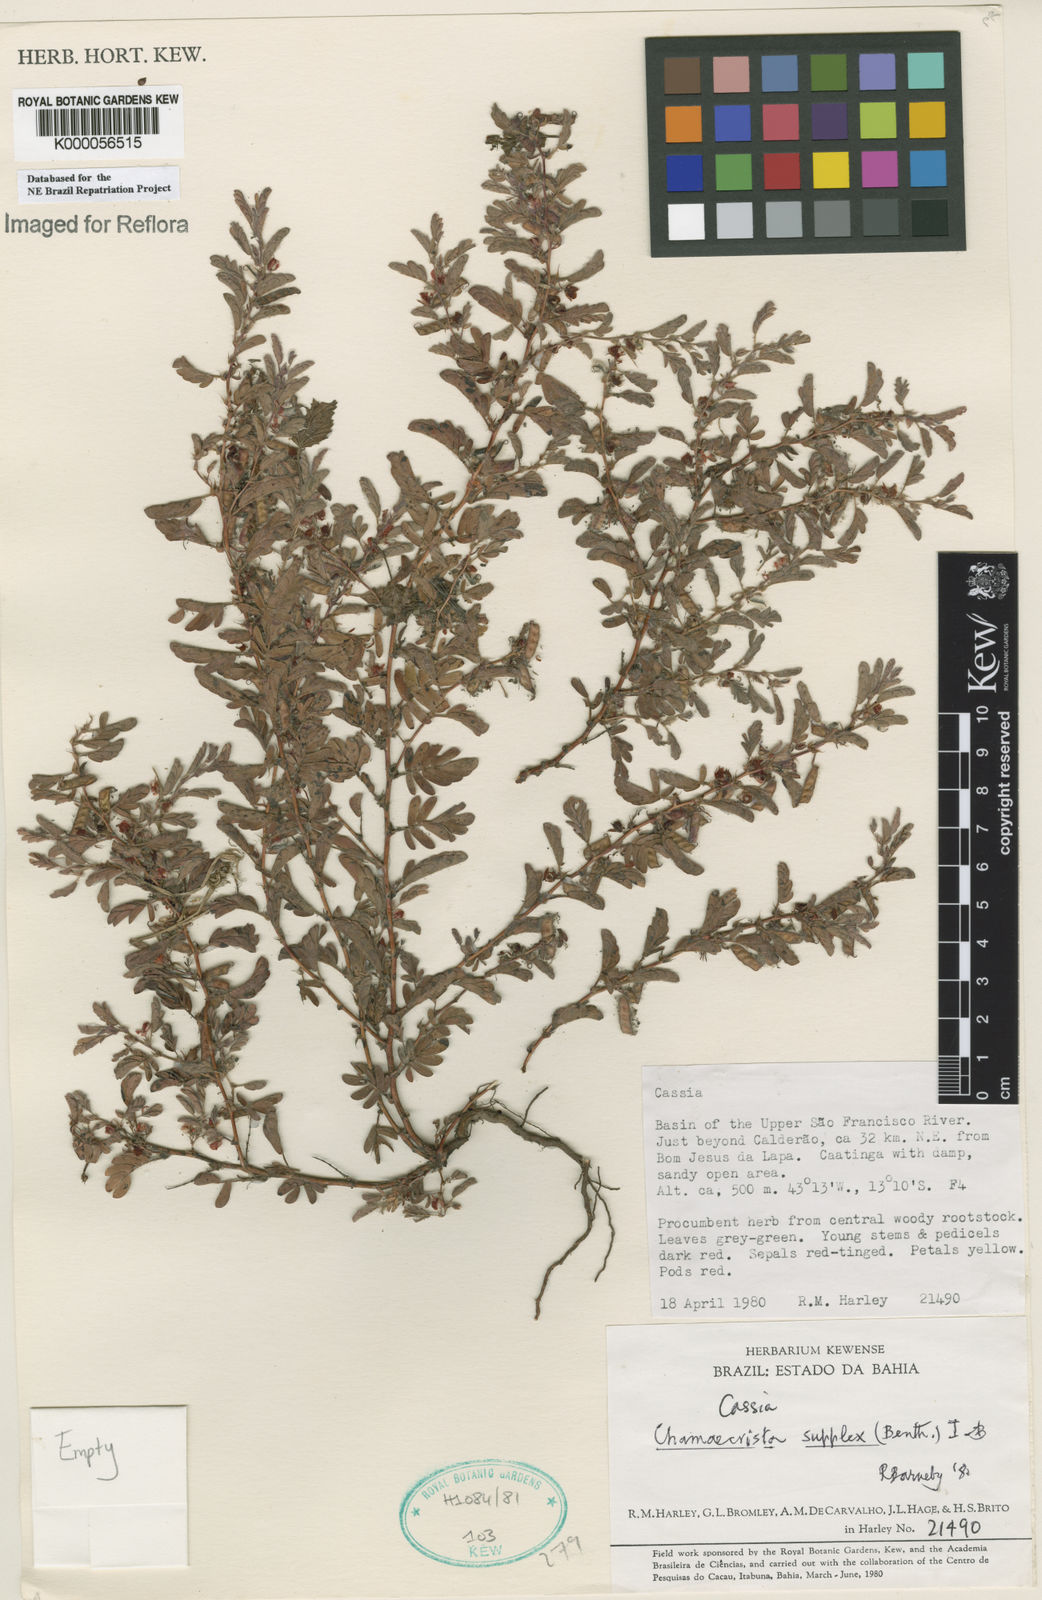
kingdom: Plantae
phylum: Tracheophyta
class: Magnoliopsida
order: Fabales
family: Fabaceae
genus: Chamaecrista
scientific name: Chamaecrista supplex
